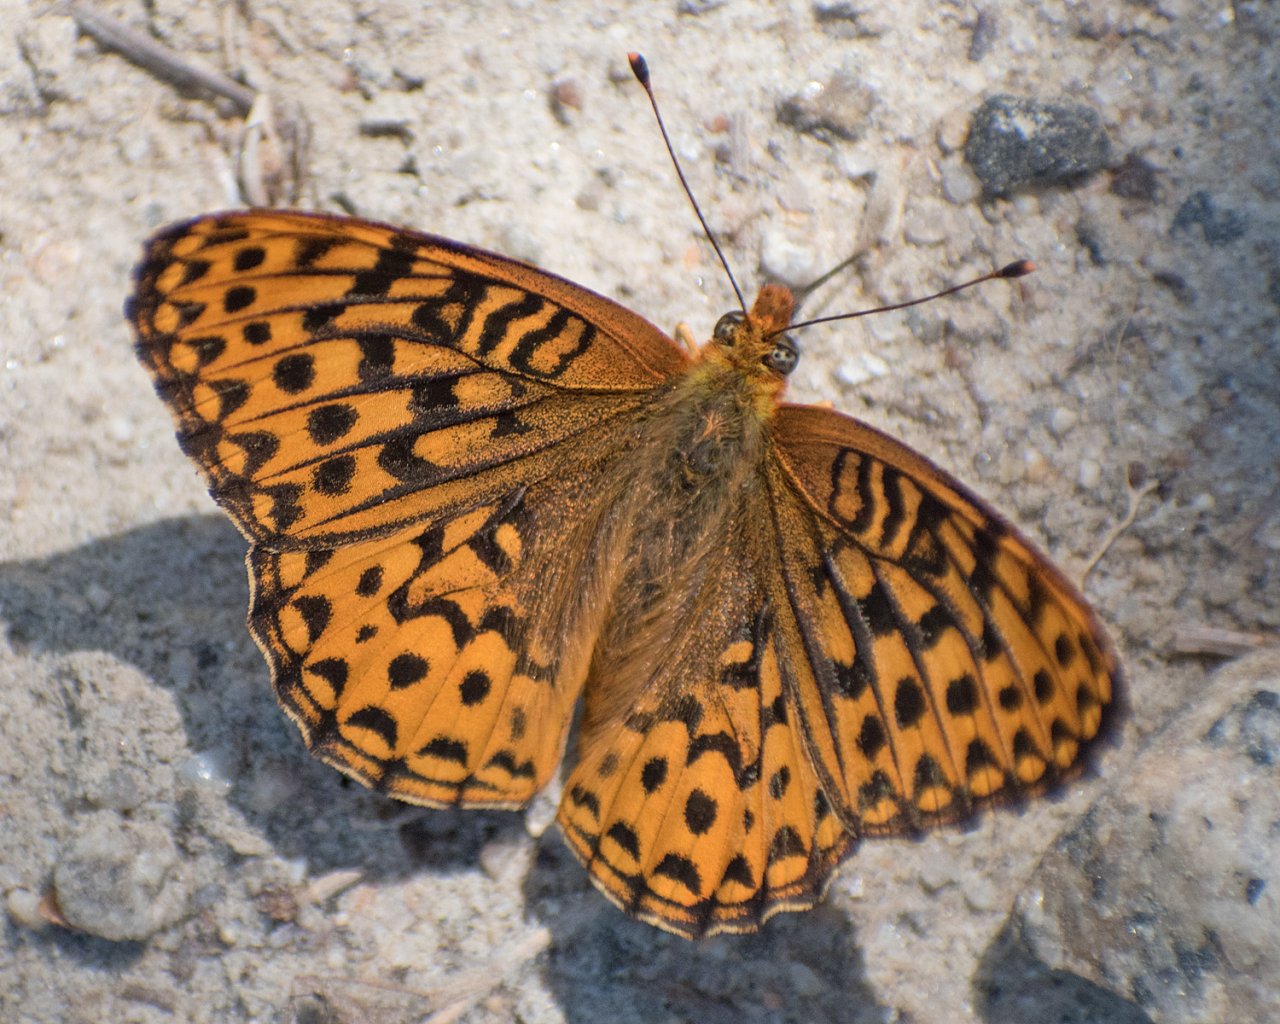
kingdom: Animalia
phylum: Arthropoda
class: Insecta
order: Lepidoptera
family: Nymphalidae
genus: Speyeria
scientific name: Speyeria hydaspe
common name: Hydaspe Fritillary
